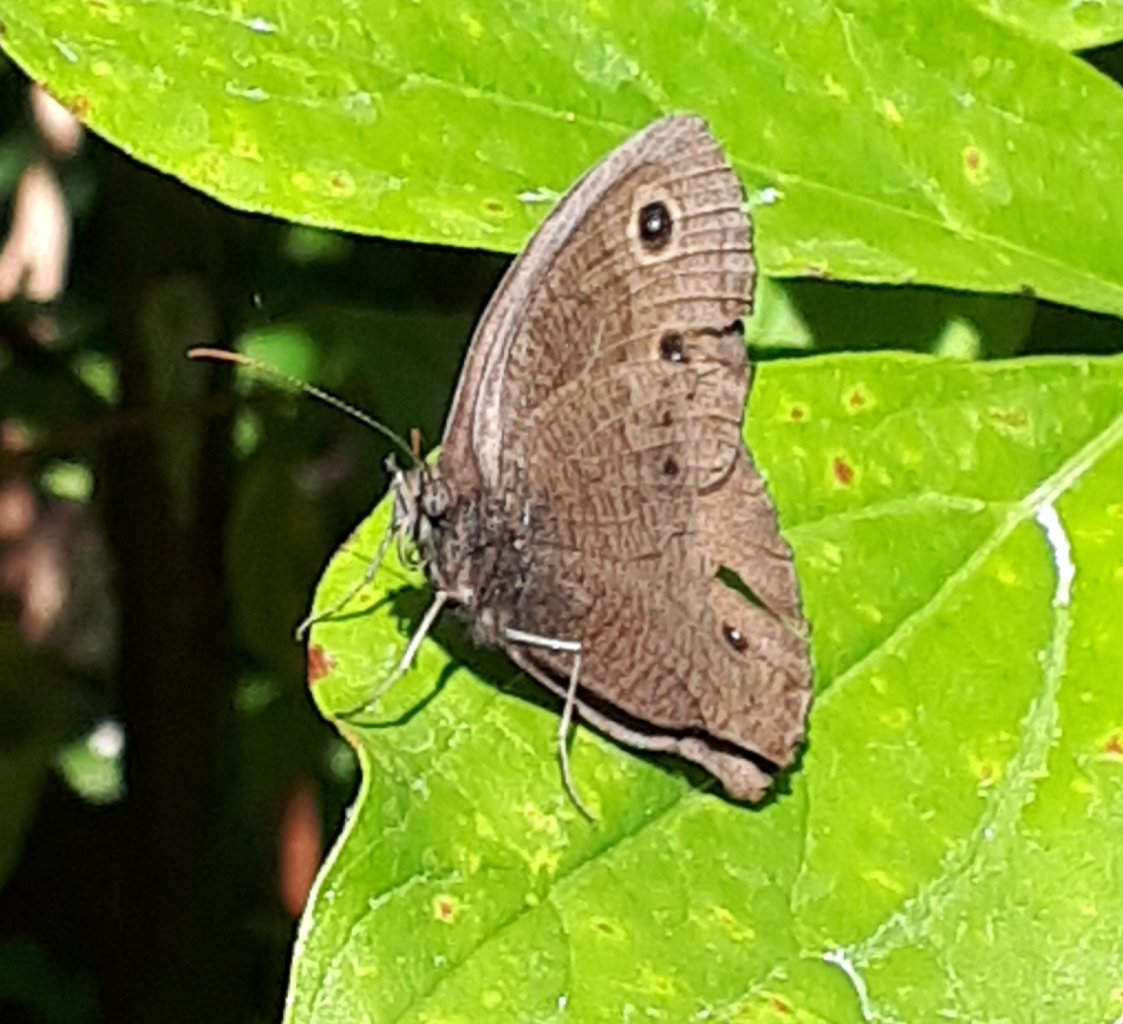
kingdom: Animalia
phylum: Arthropoda
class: Insecta
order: Lepidoptera
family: Nymphalidae
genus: Cercyonis
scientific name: Cercyonis pegala
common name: Common Wood-Nymph
